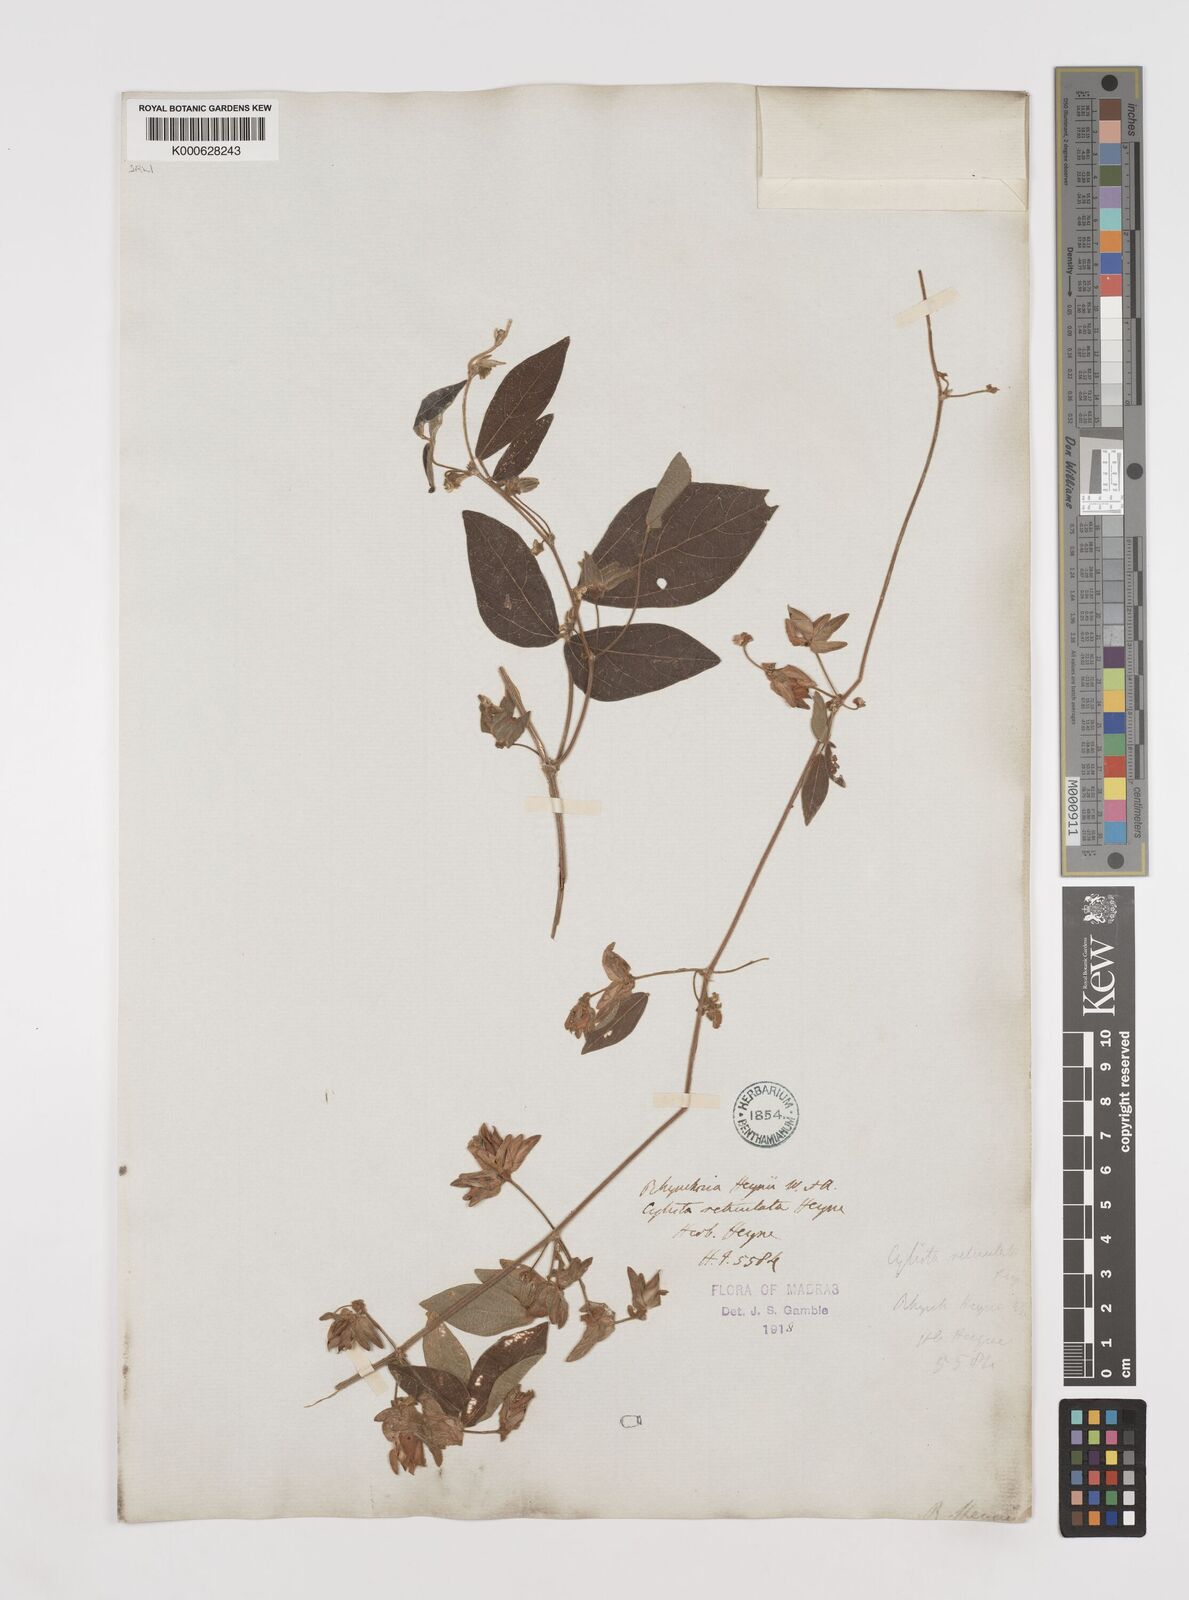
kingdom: Plantae
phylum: Tracheophyta
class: Magnoliopsida
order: Fabales
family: Fabaceae
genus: Rhynchosia
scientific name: Rhynchosia heynei
